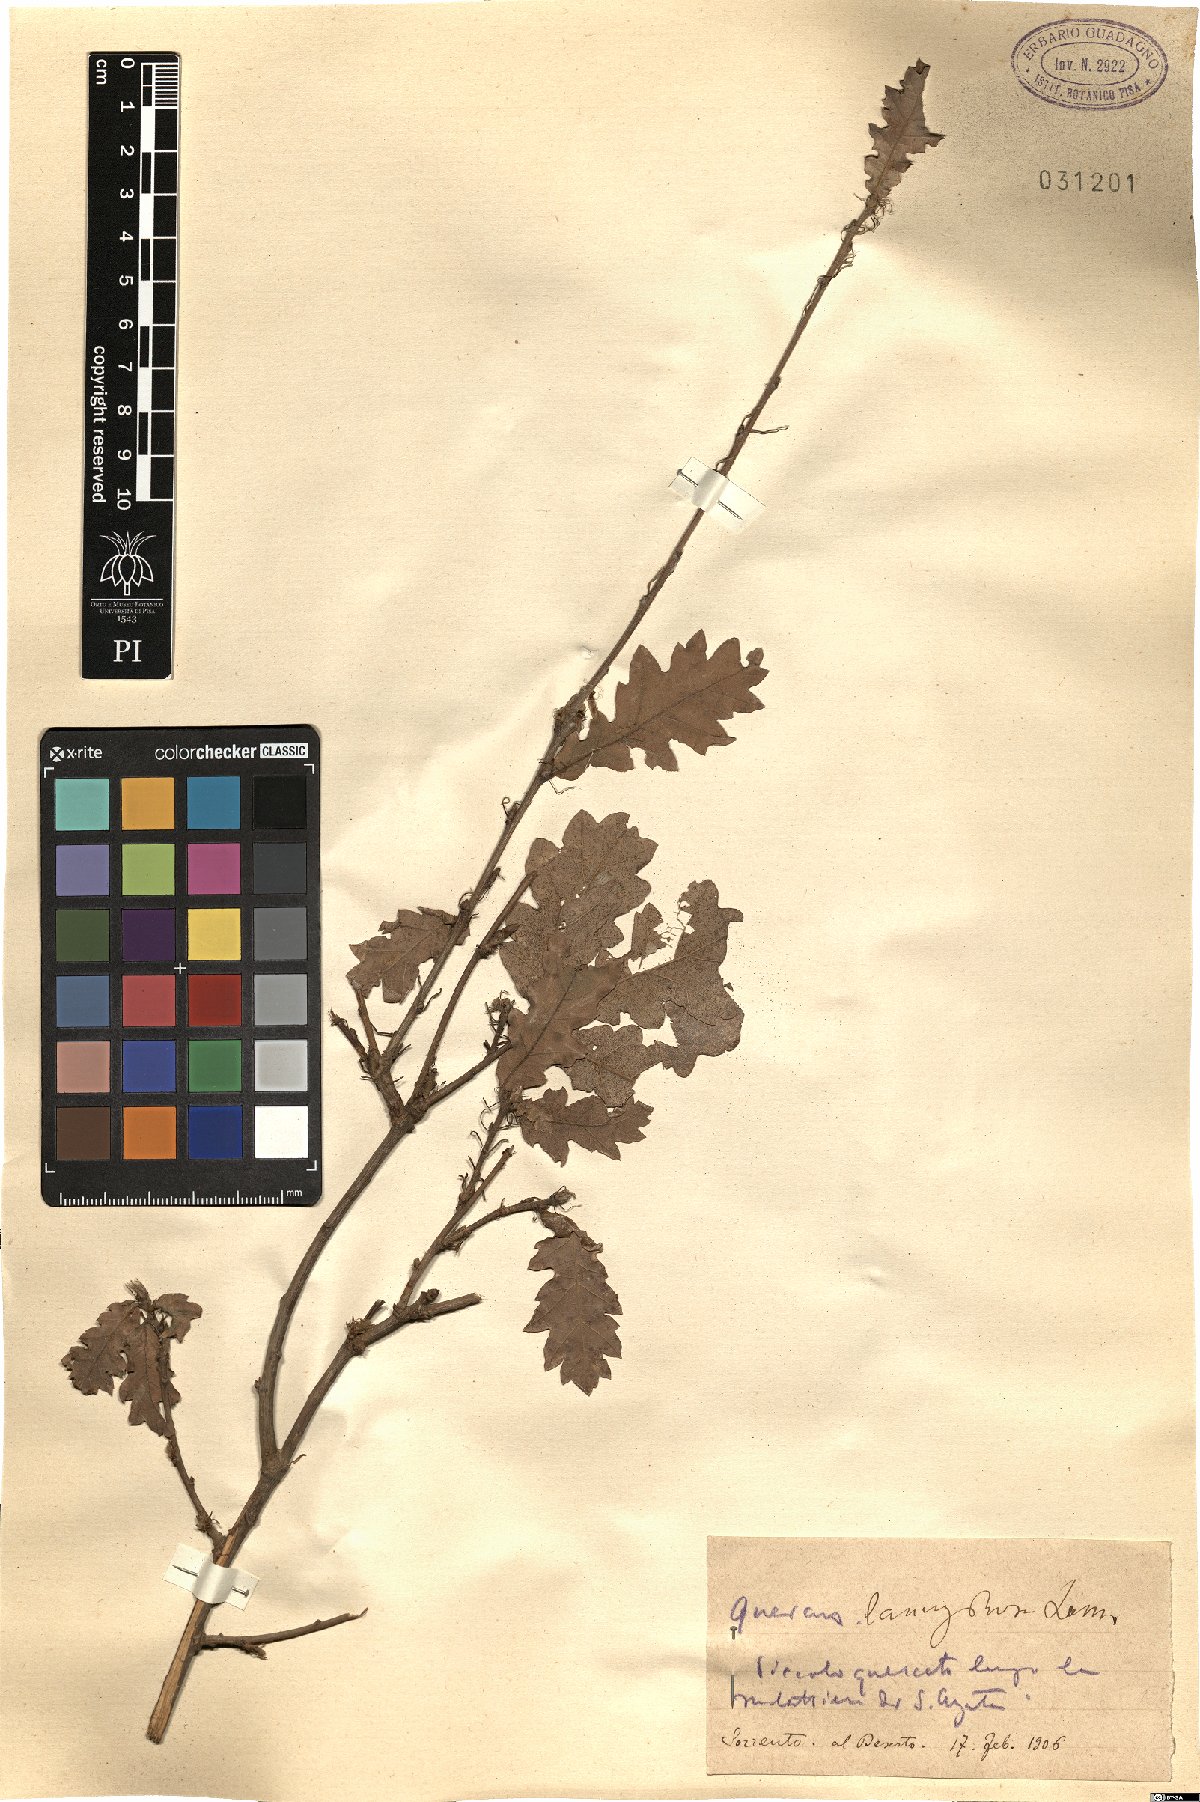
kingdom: Plantae
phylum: Tracheophyta
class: Magnoliopsida
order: Fagales
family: Fagaceae
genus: Quercus
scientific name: Quercus cerris
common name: Turkey oak
